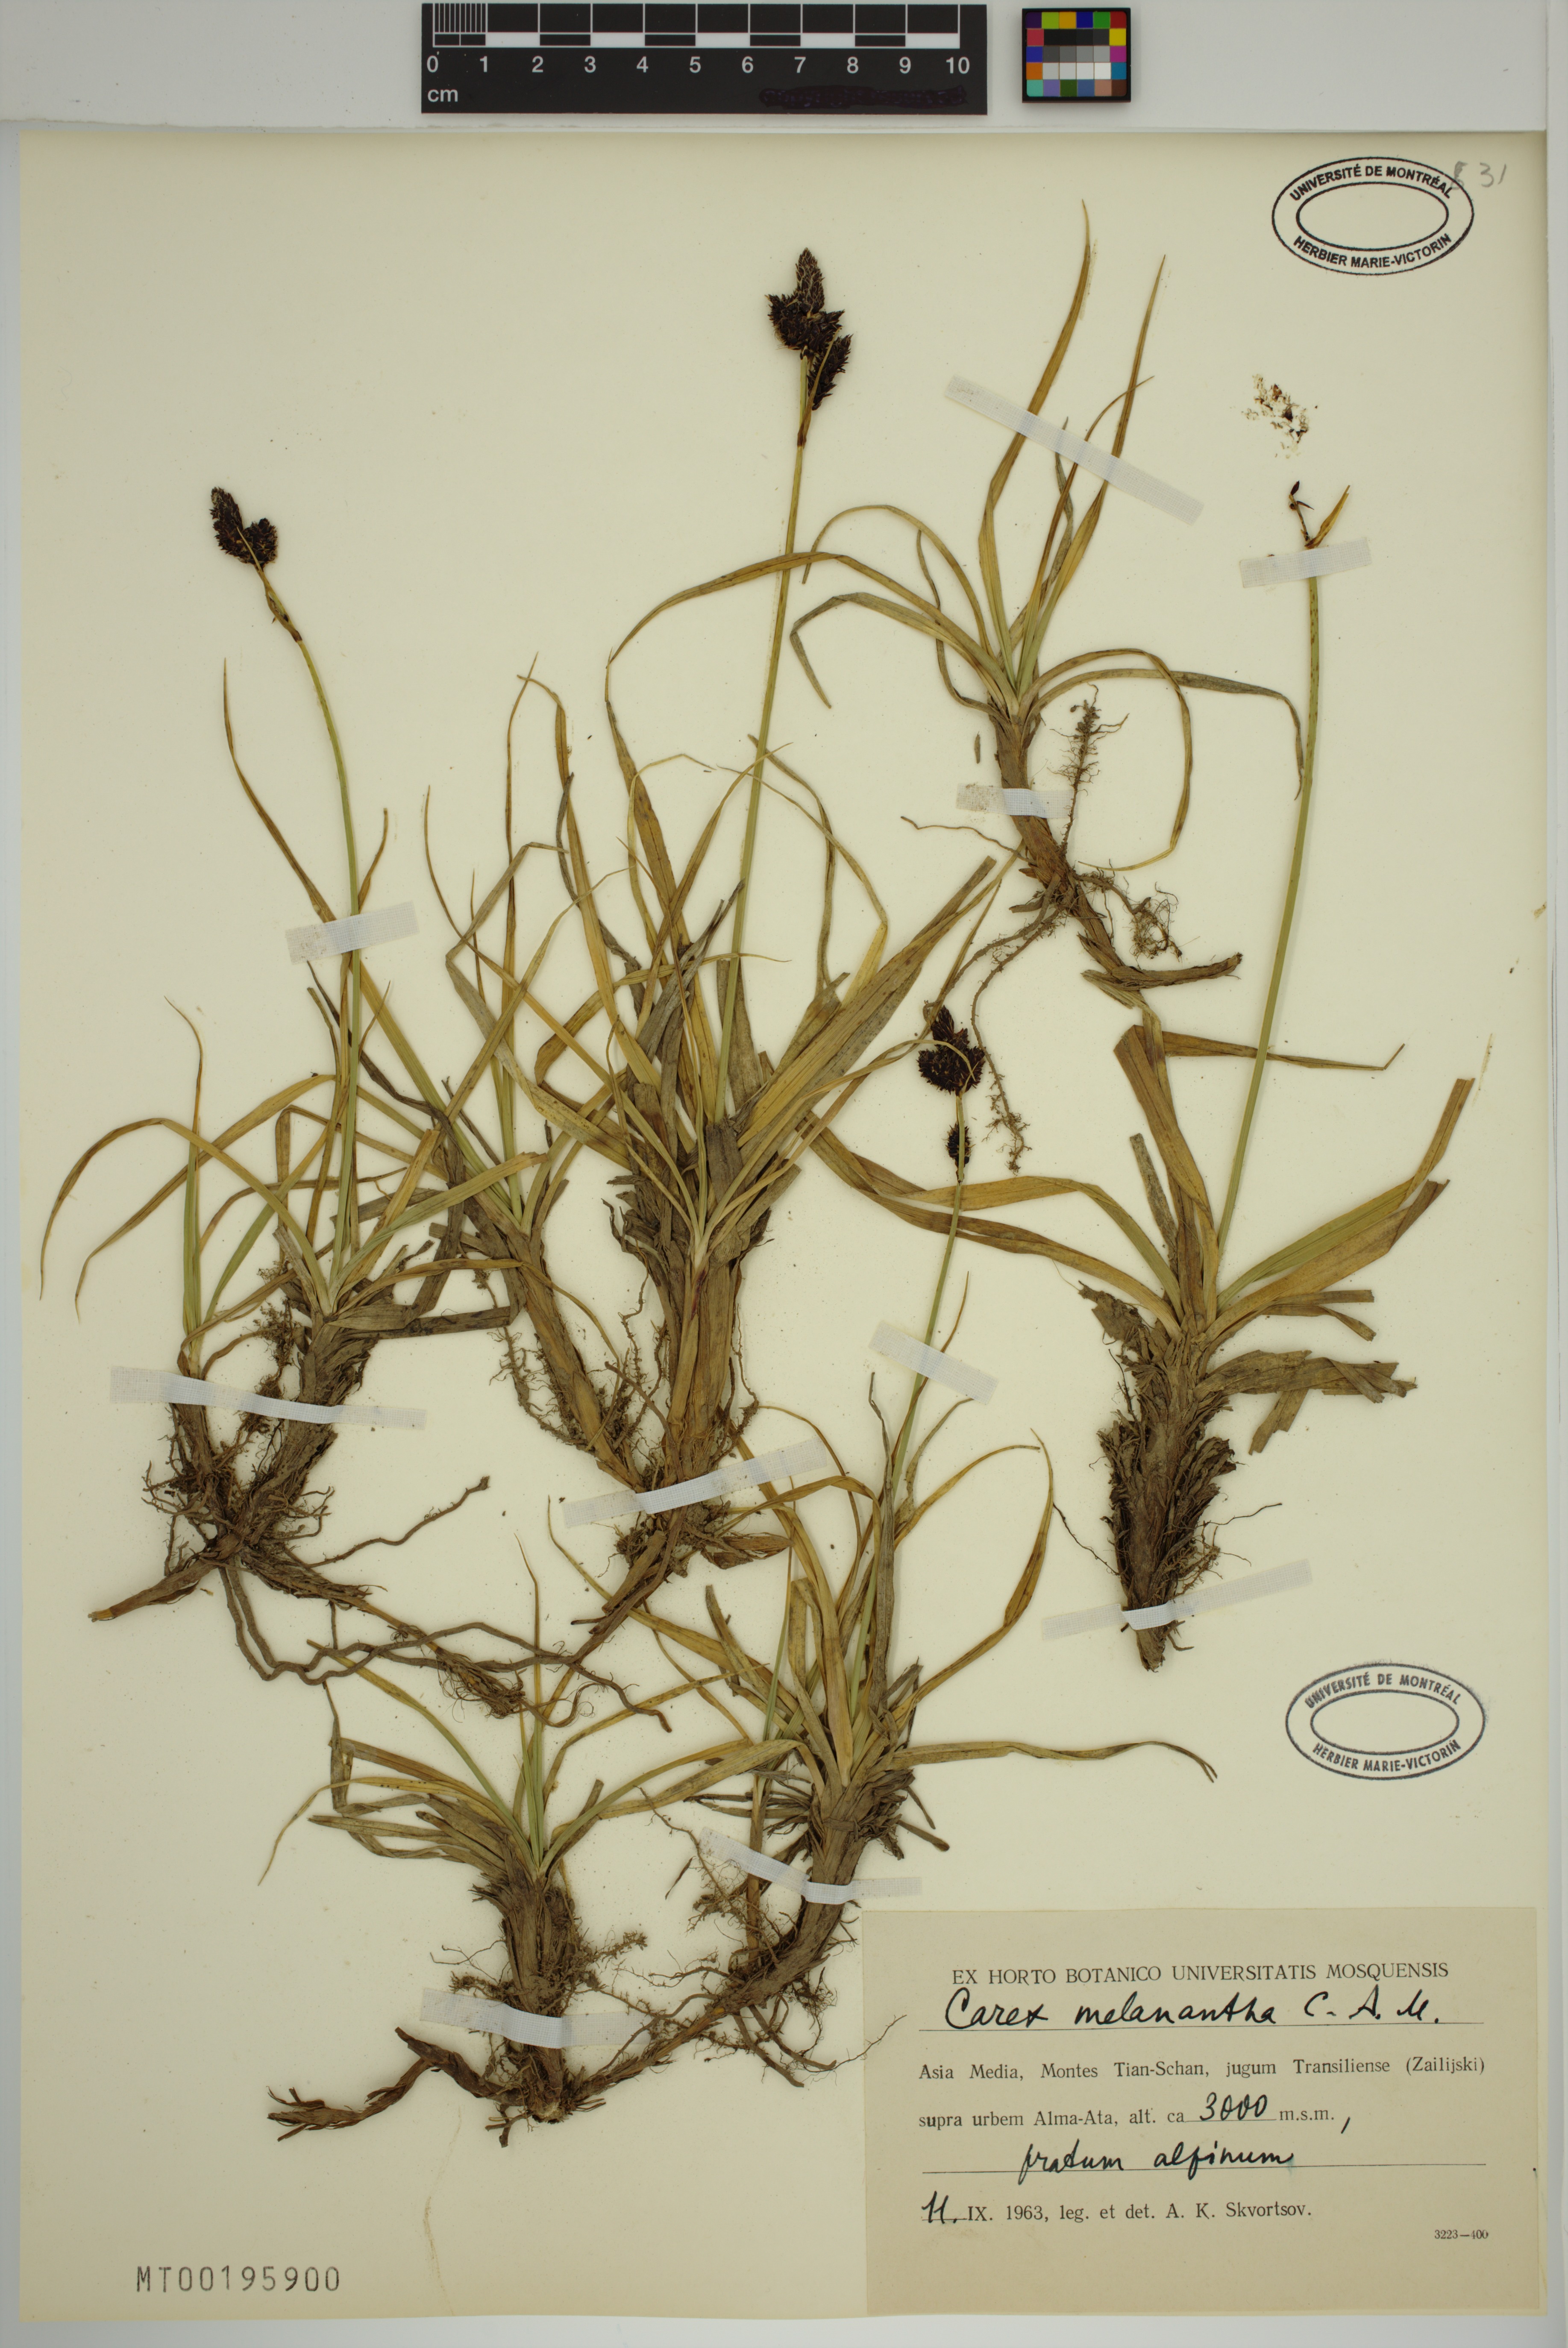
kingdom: Plantae
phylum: Tracheophyta
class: Liliopsida
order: Poales
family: Cyperaceae
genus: Carex
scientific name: Carex melanantha
